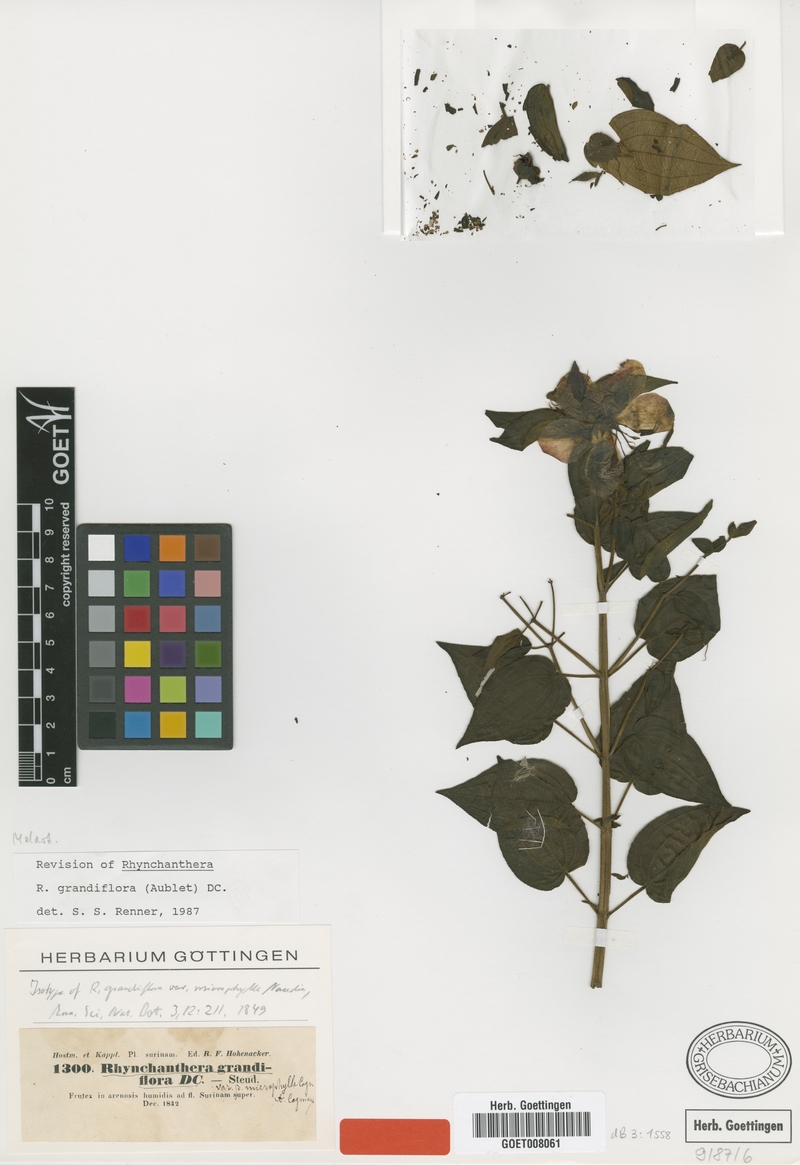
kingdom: Plantae
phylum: Tracheophyta
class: Magnoliopsida
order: Myrtales
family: Melastomataceae
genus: Rhynchanthera
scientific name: Rhynchanthera grandiflora
